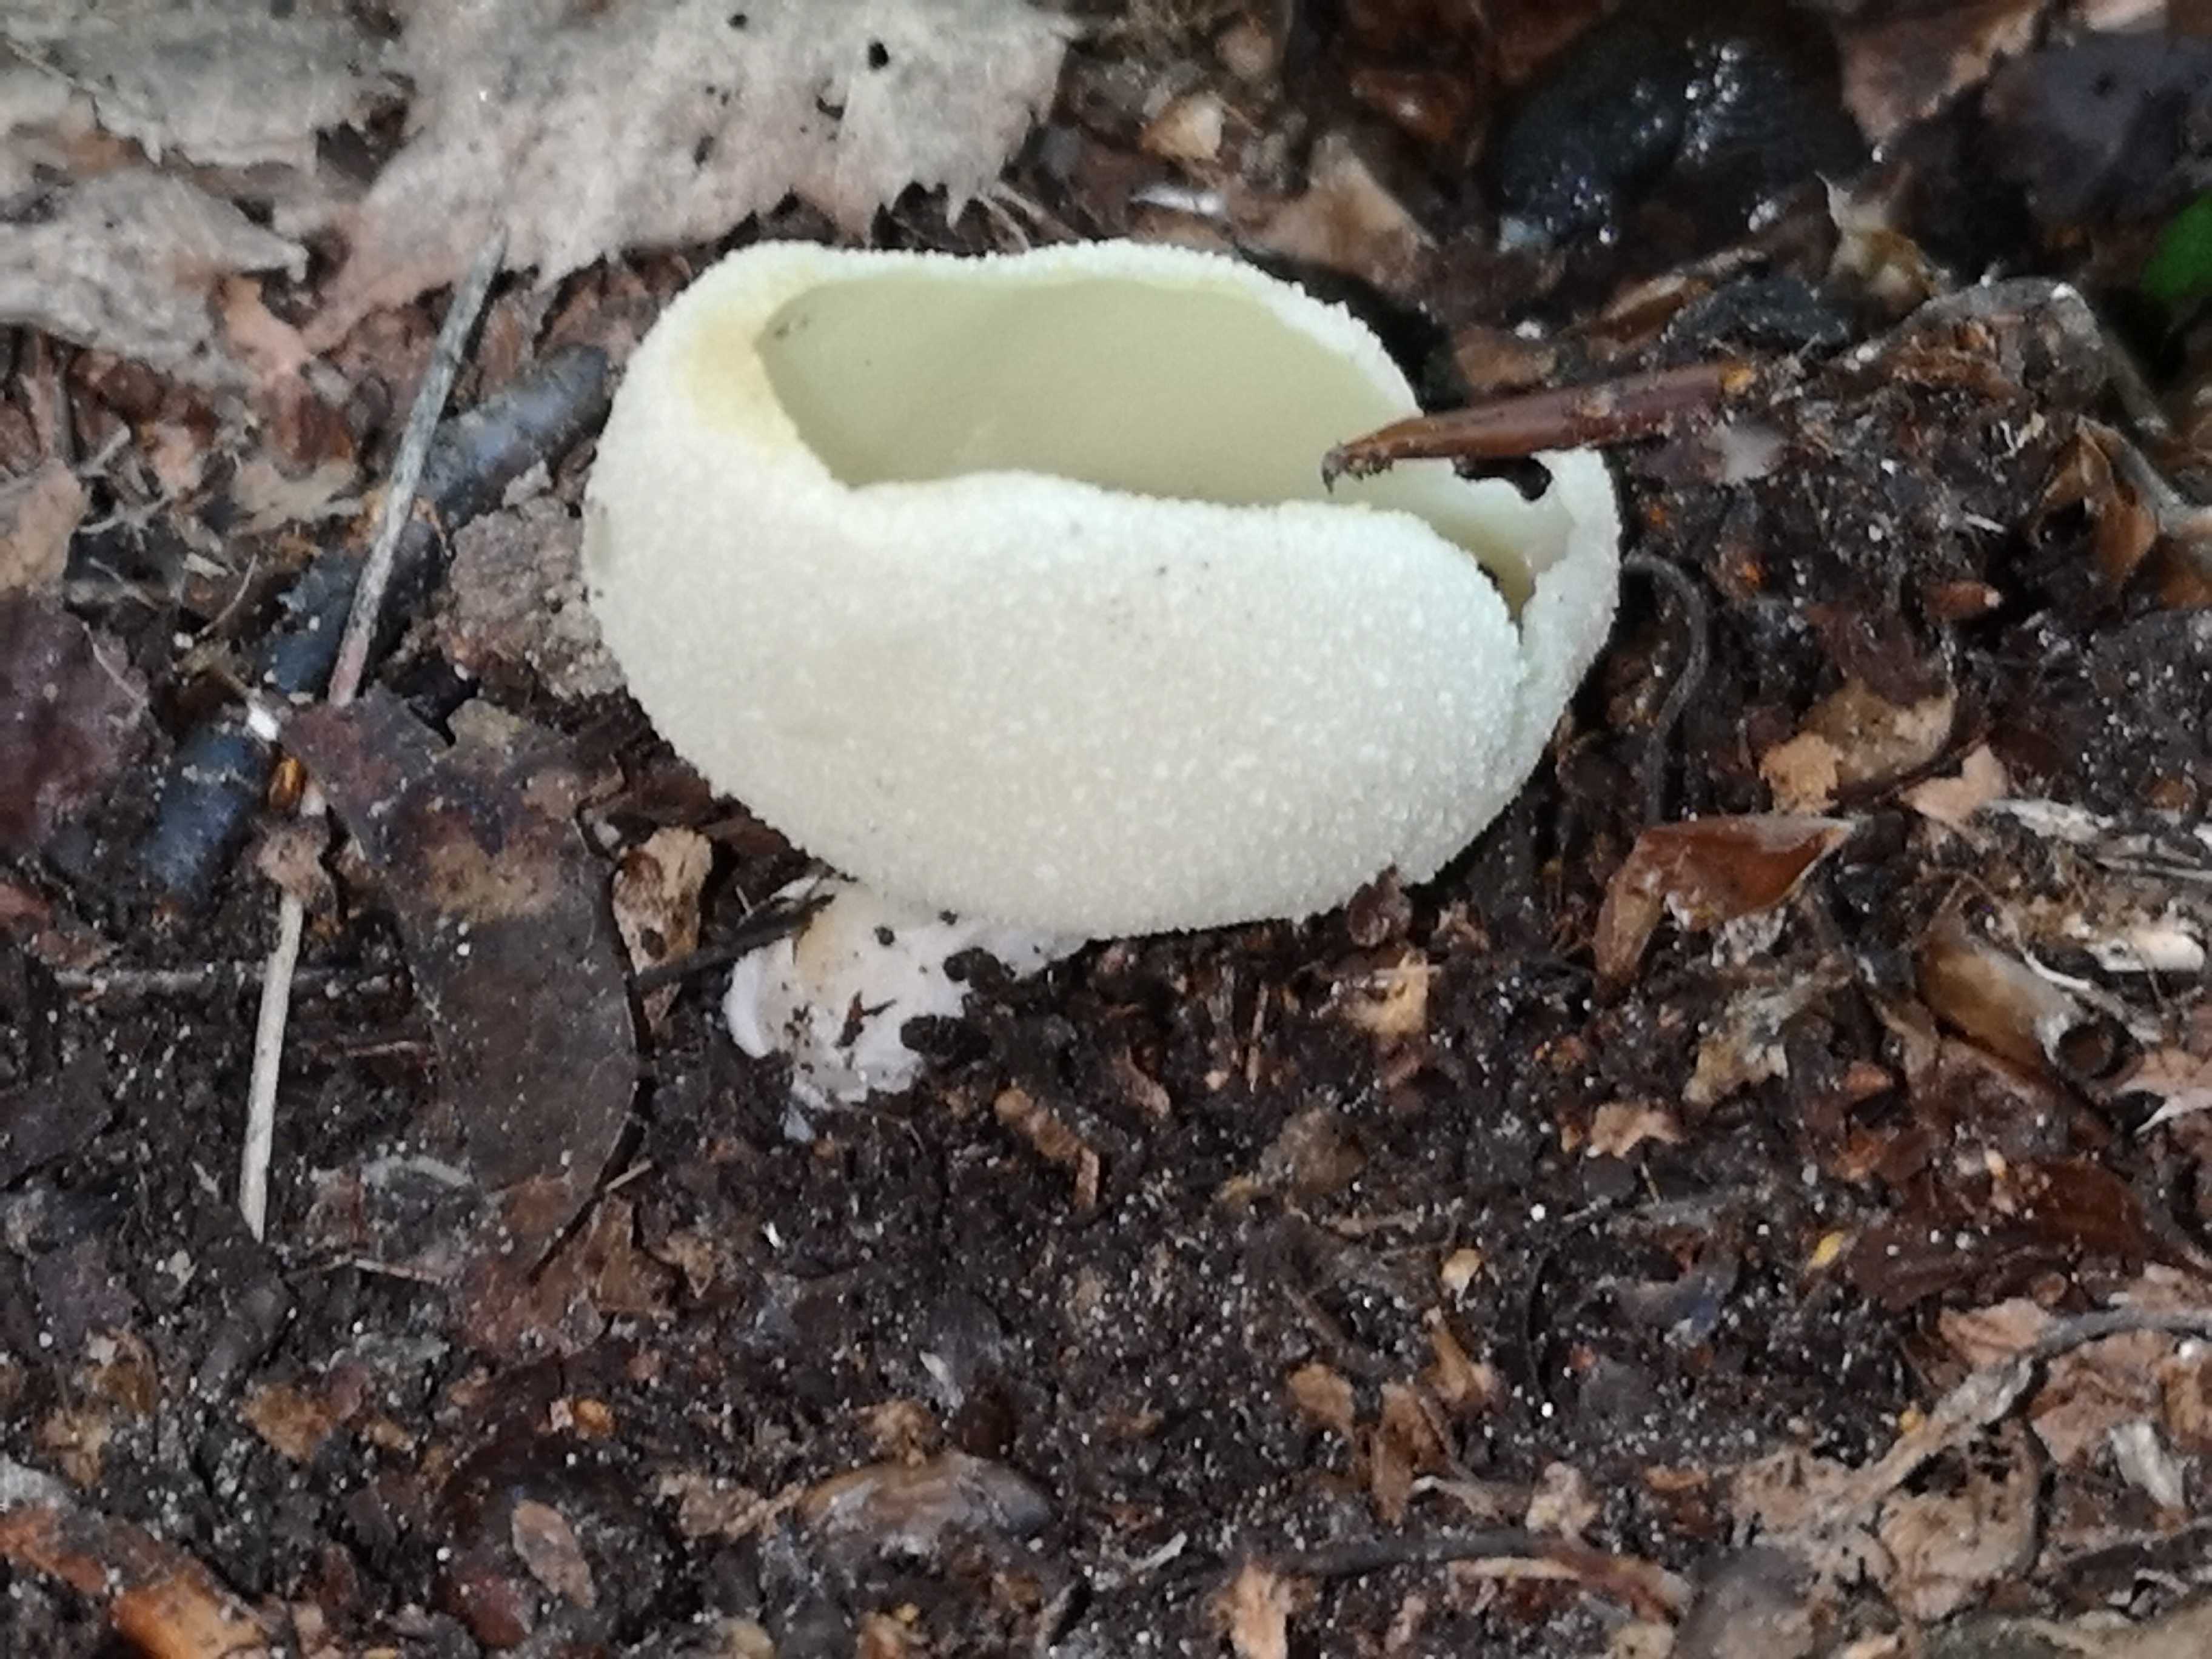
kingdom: Fungi
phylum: Ascomycota
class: Pezizomycetes
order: Pezizales
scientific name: Pezizales
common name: bægersvampordenen
